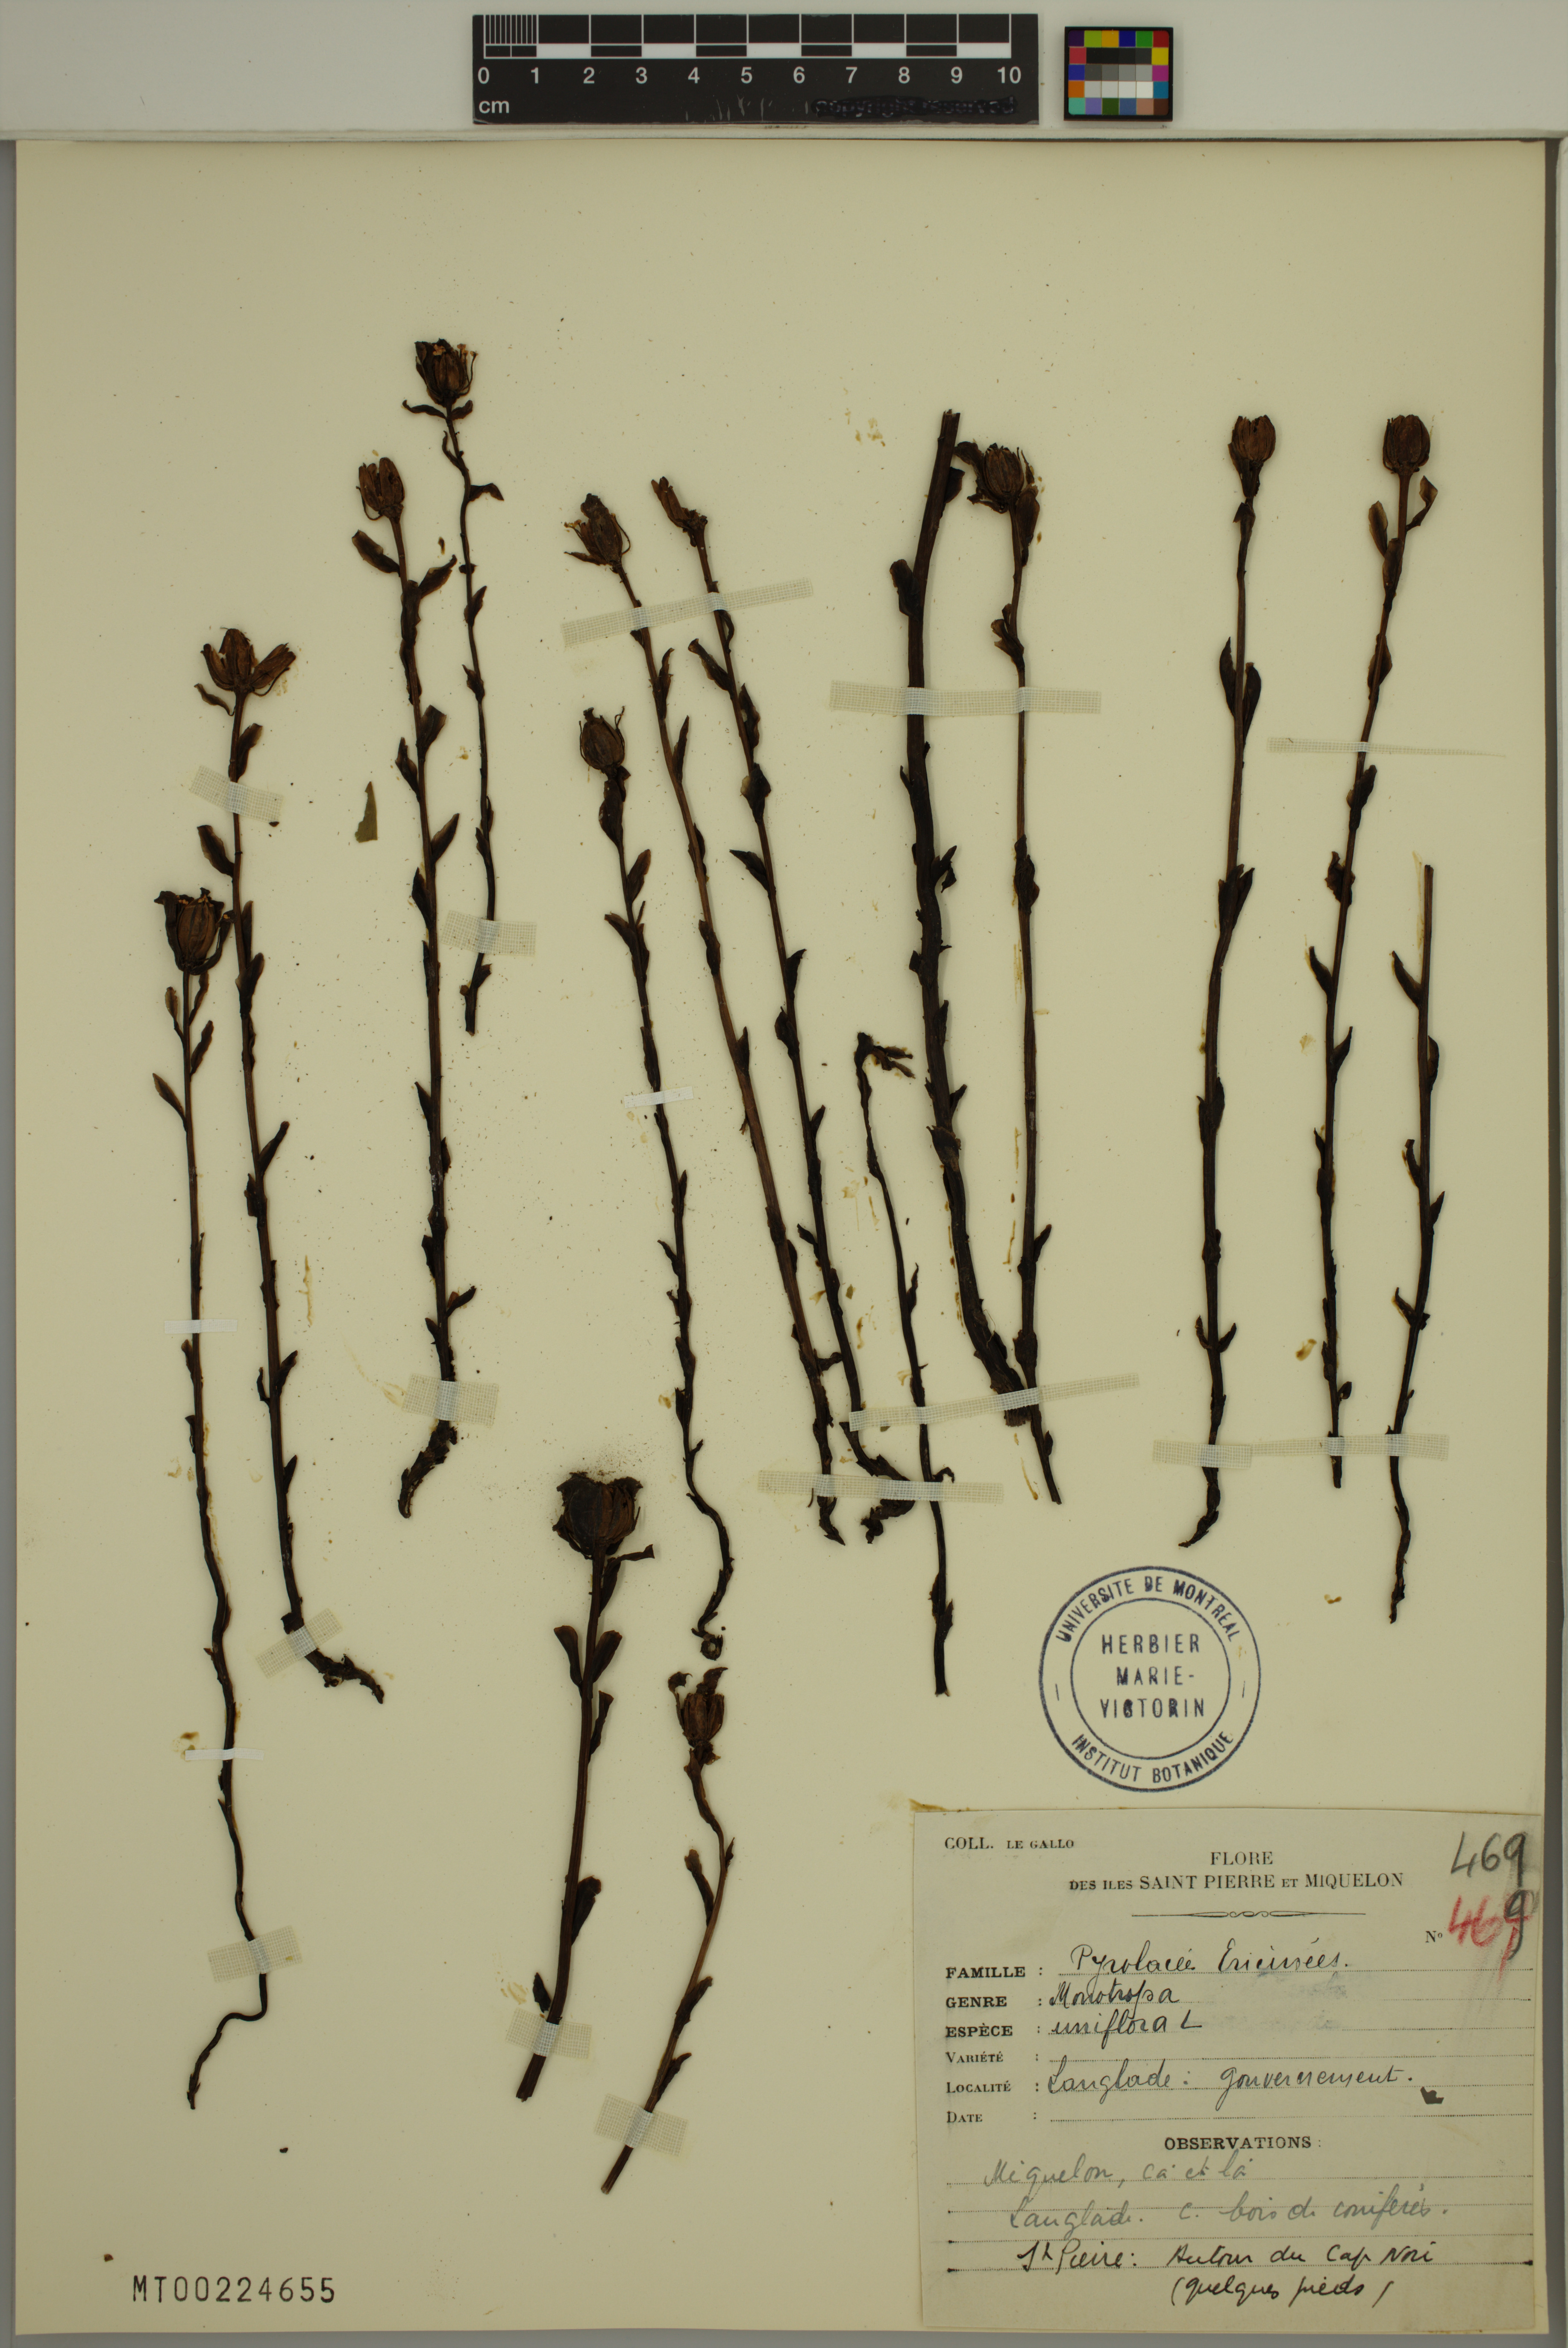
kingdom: Plantae
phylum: Tracheophyta
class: Magnoliopsida
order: Ericales
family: Ericaceae
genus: Monotropa
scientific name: Monotropa uniflora
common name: Convulsion root
